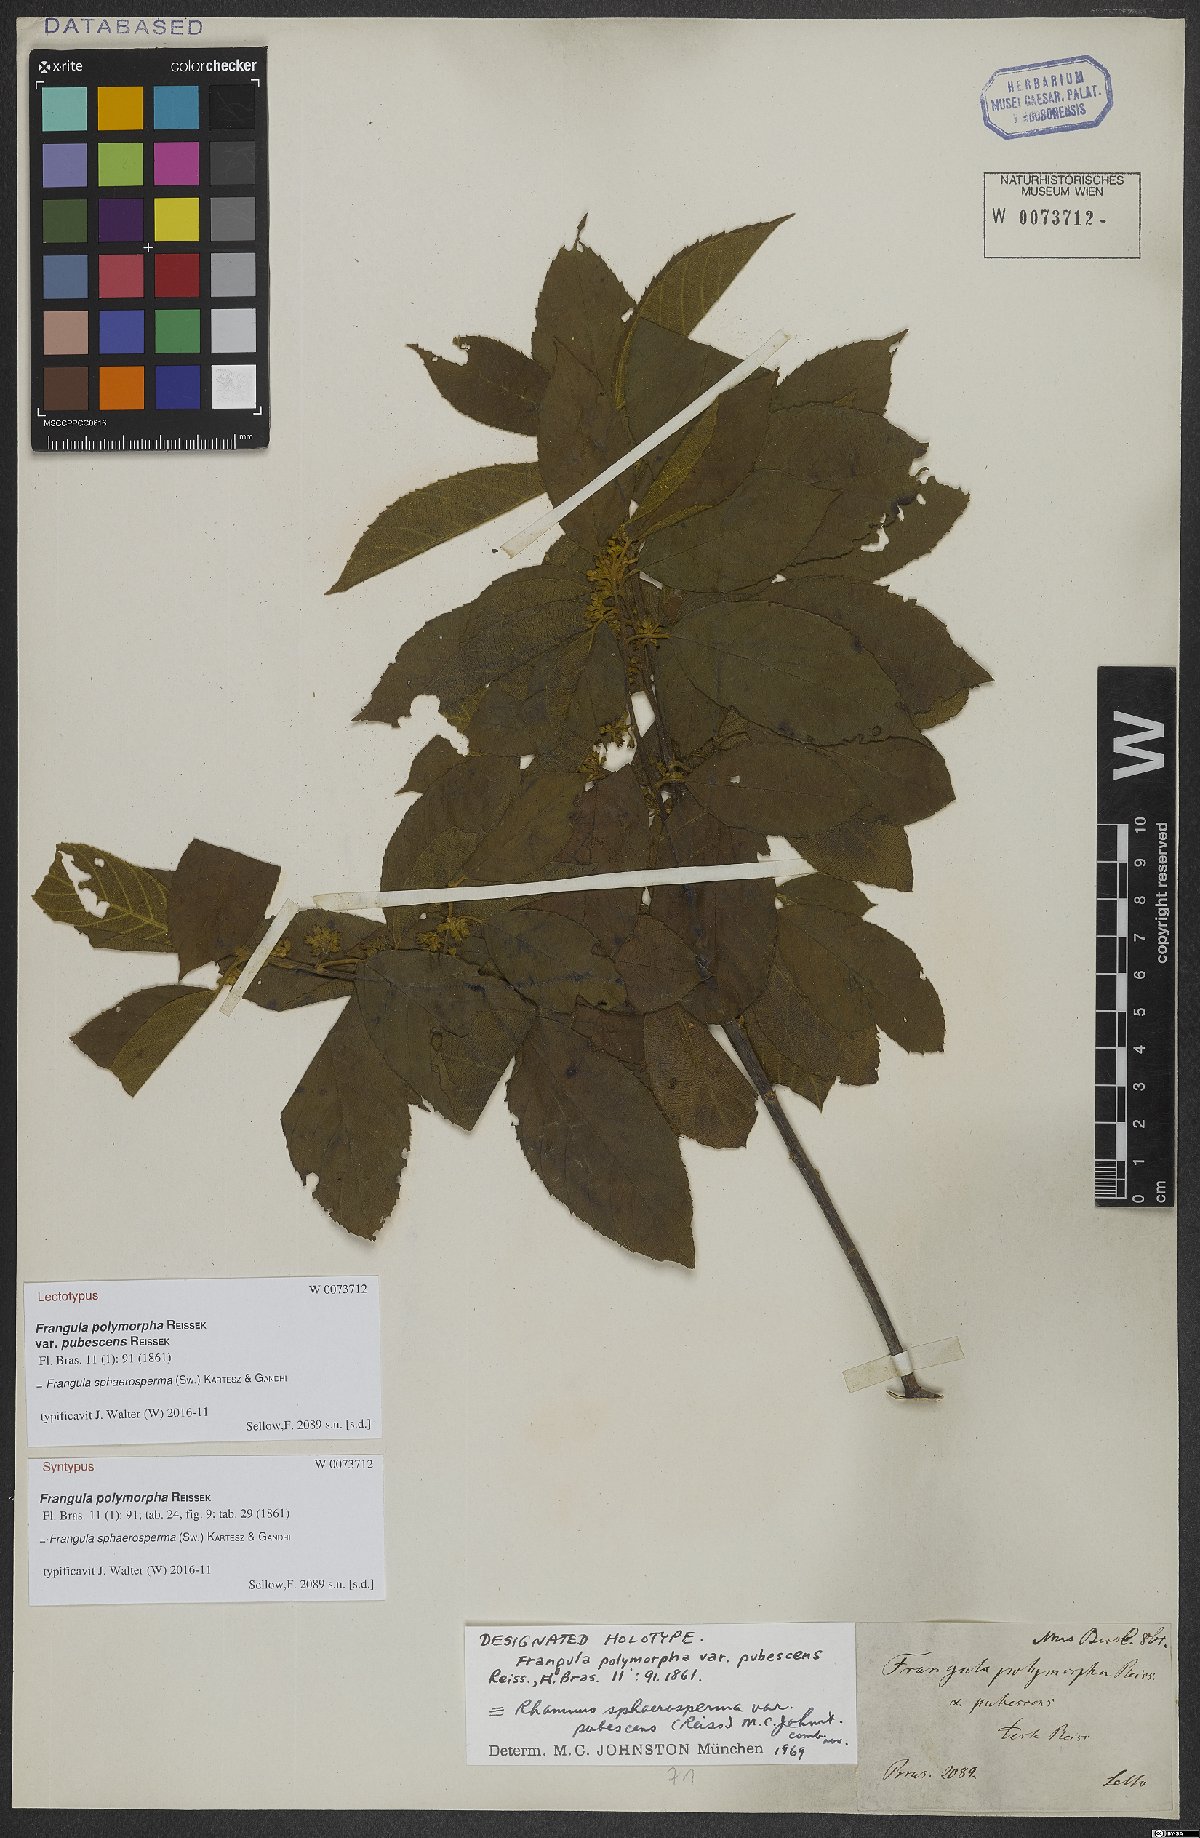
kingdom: Plantae
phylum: Tracheophyta
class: Magnoliopsida
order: Rosales
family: Rhamnaceae
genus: Frangula
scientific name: Frangula sphaerosperma
